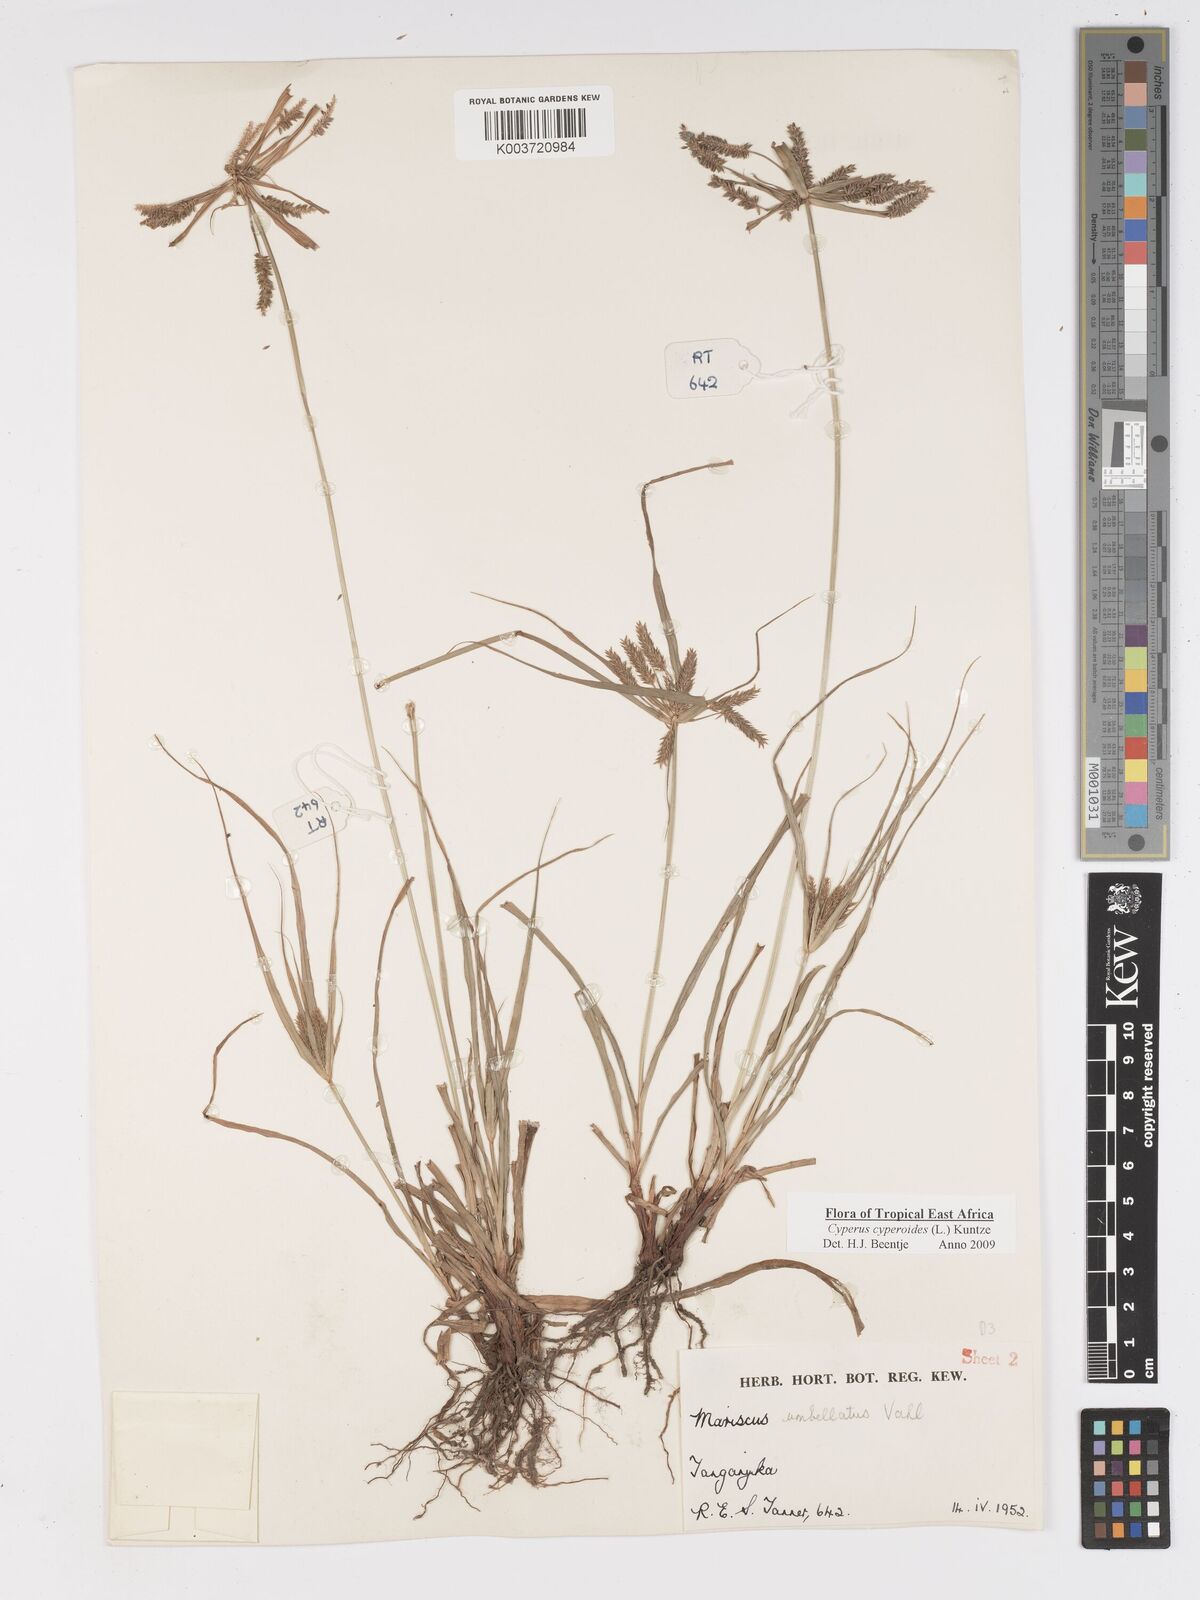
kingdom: Plantae
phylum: Tracheophyta
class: Liliopsida
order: Poales
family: Cyperaceae
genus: Cyperus
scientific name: Cyperus macrocarpus
